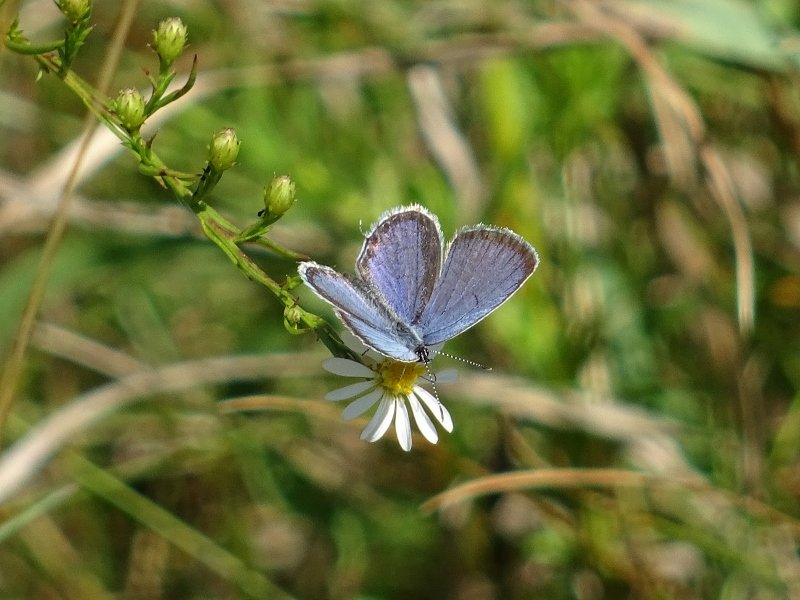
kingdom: Animalia
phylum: Arthropoda
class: Insecta
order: Lepidoptera
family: Lycaenidae
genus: Elkalyce
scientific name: Elkalyce comyntas
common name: Eastern Tailed-Blue
